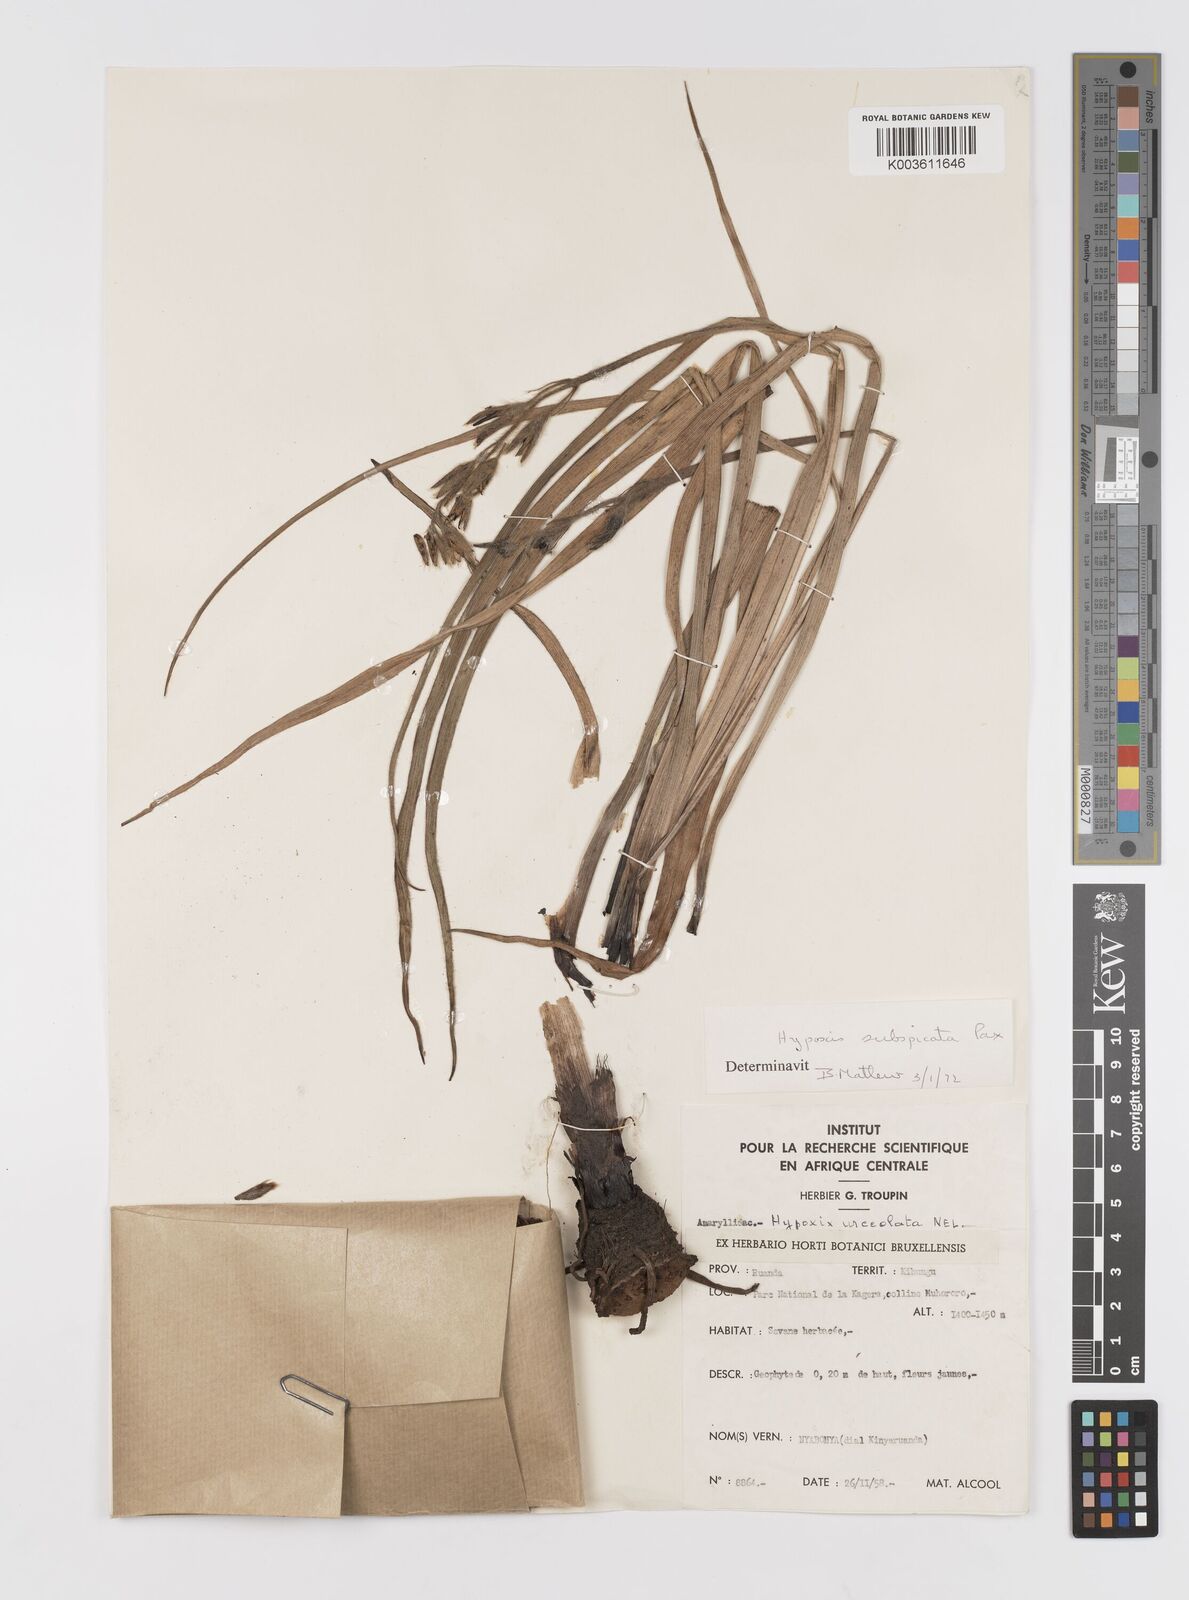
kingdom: Plantae
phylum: Tracheophyta
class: Liliopsida
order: Asparagales
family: Hypoxidaceae
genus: Hypoxis
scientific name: Hypoxis polystachya
